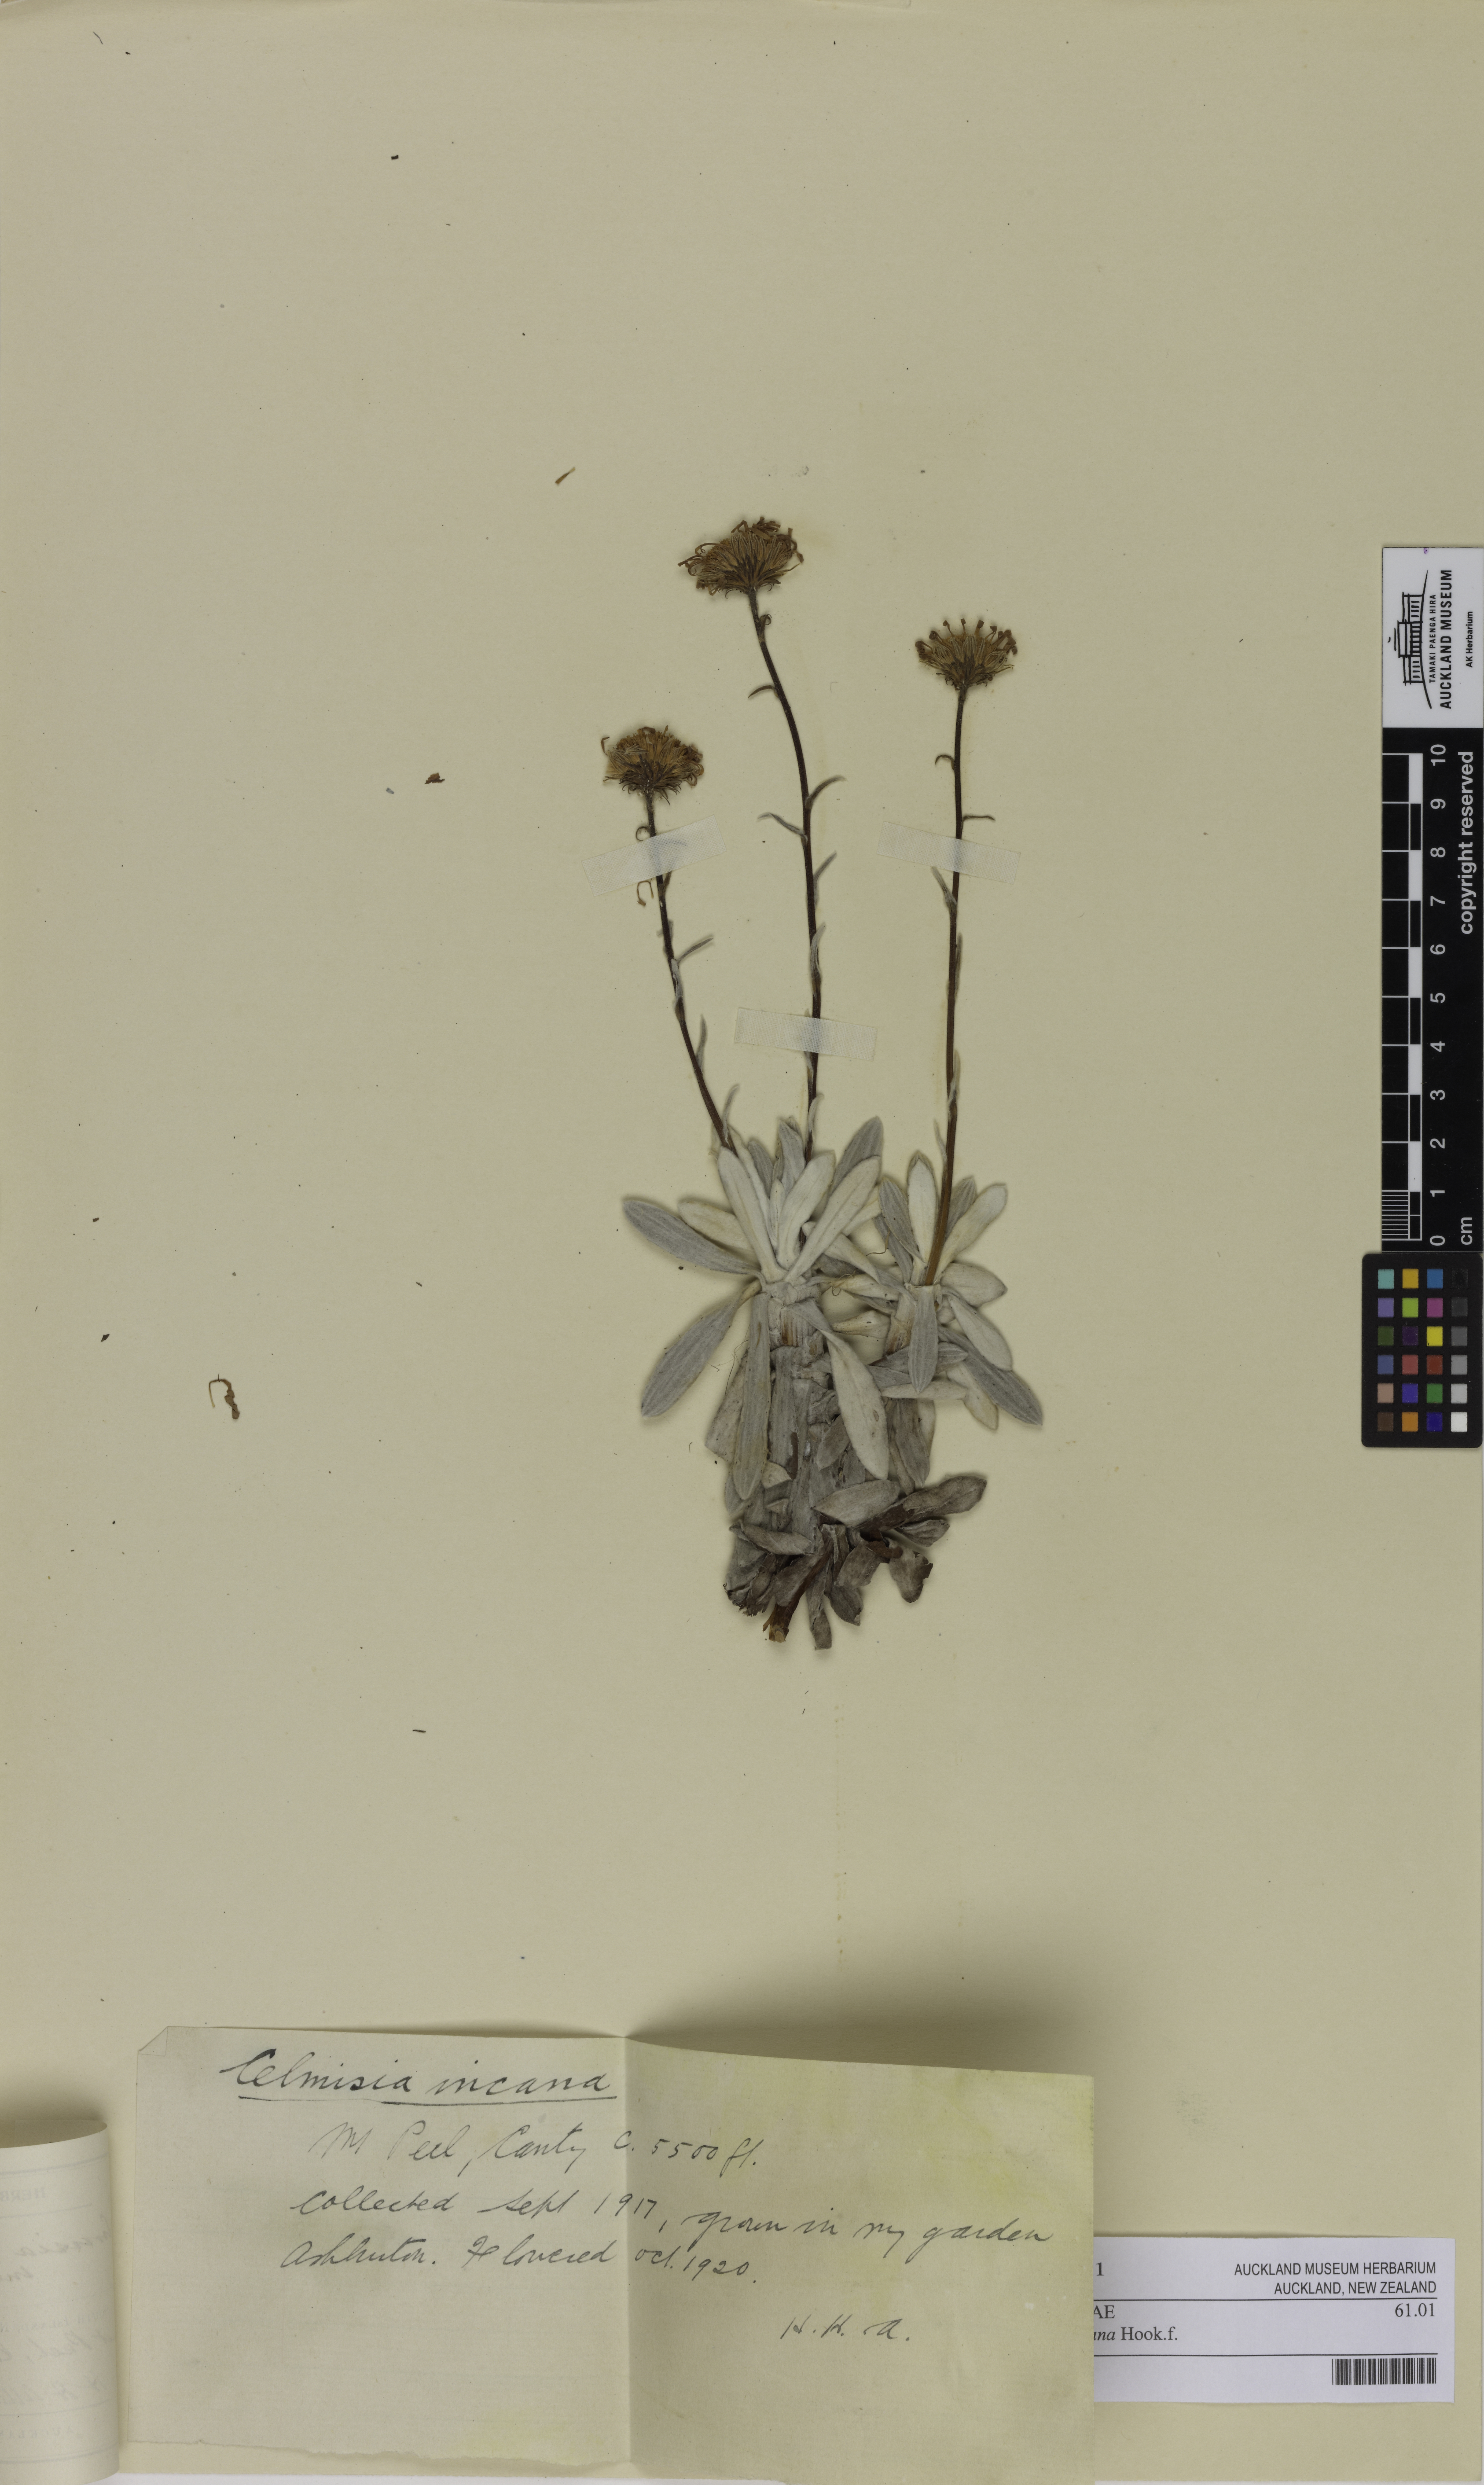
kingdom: Plantae
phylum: Tracheophyta
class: Magnoliopsida
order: Asterales
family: Asteraceae
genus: Celmisia
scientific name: Celmisia incana
